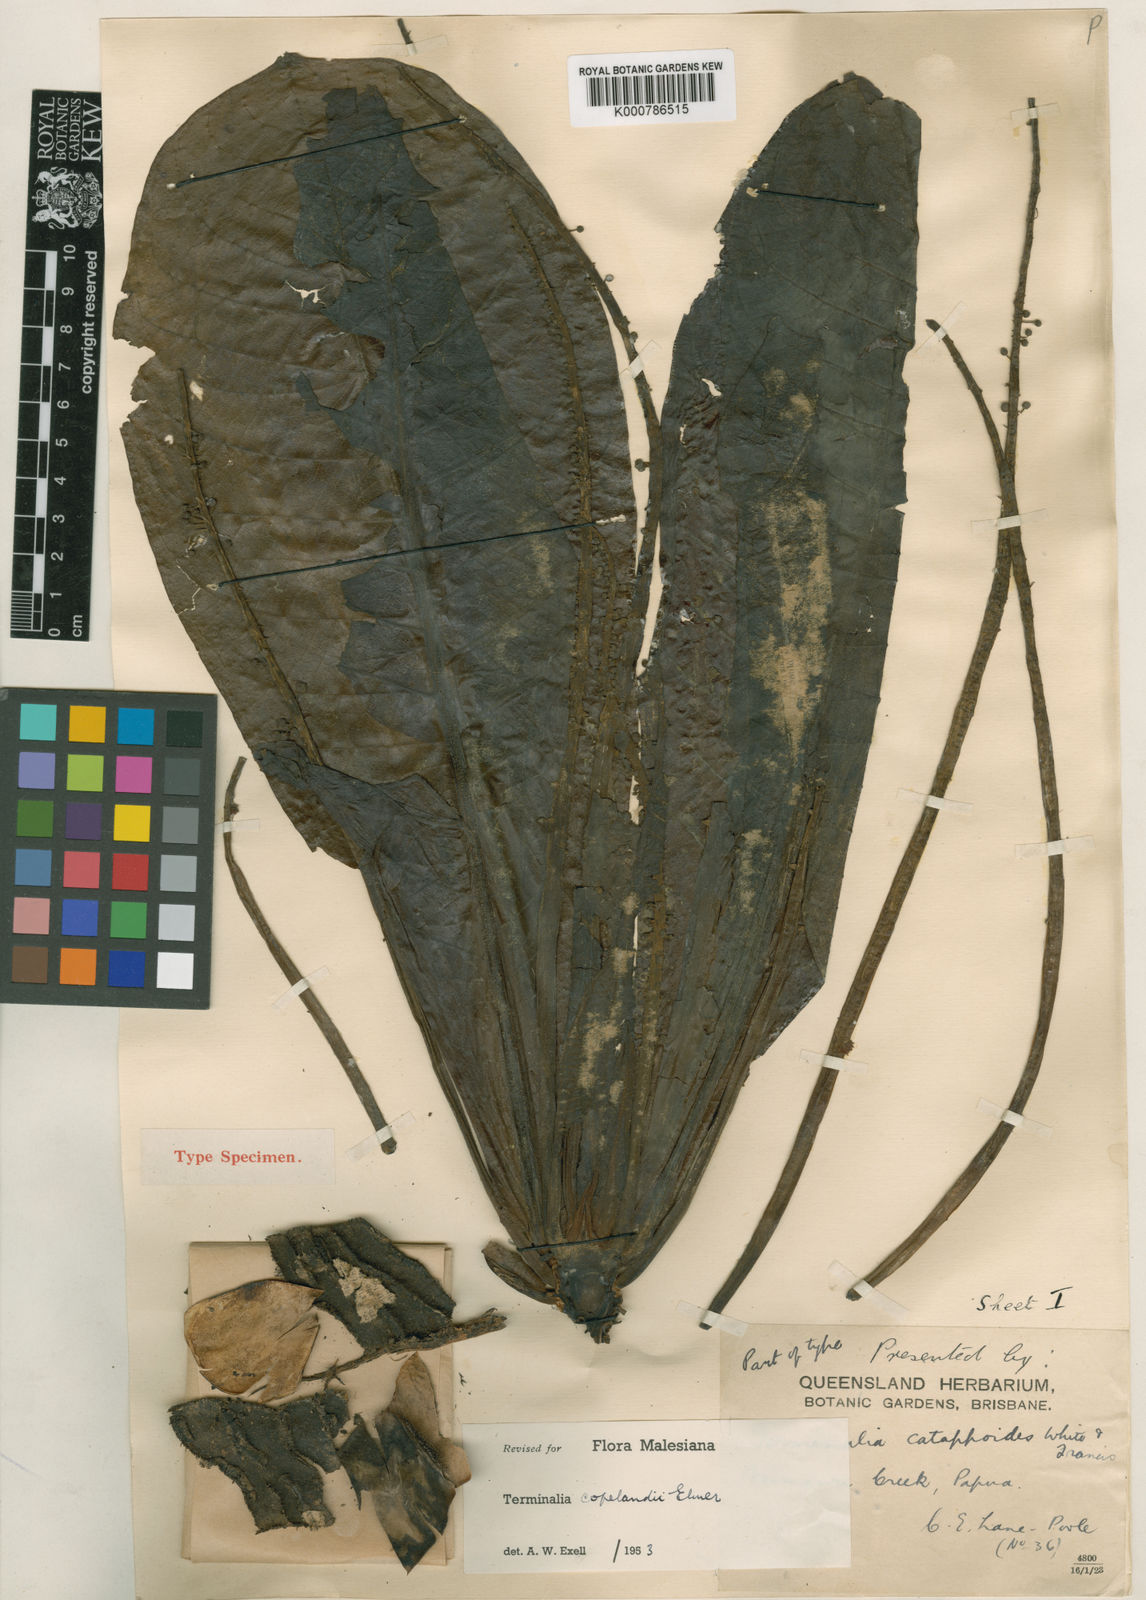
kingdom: Plantae
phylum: Tracheophyta
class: Magnoliopsida
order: Myrtales
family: Combretaceae
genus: Terminalia
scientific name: Terminalia procera
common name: White bombway
